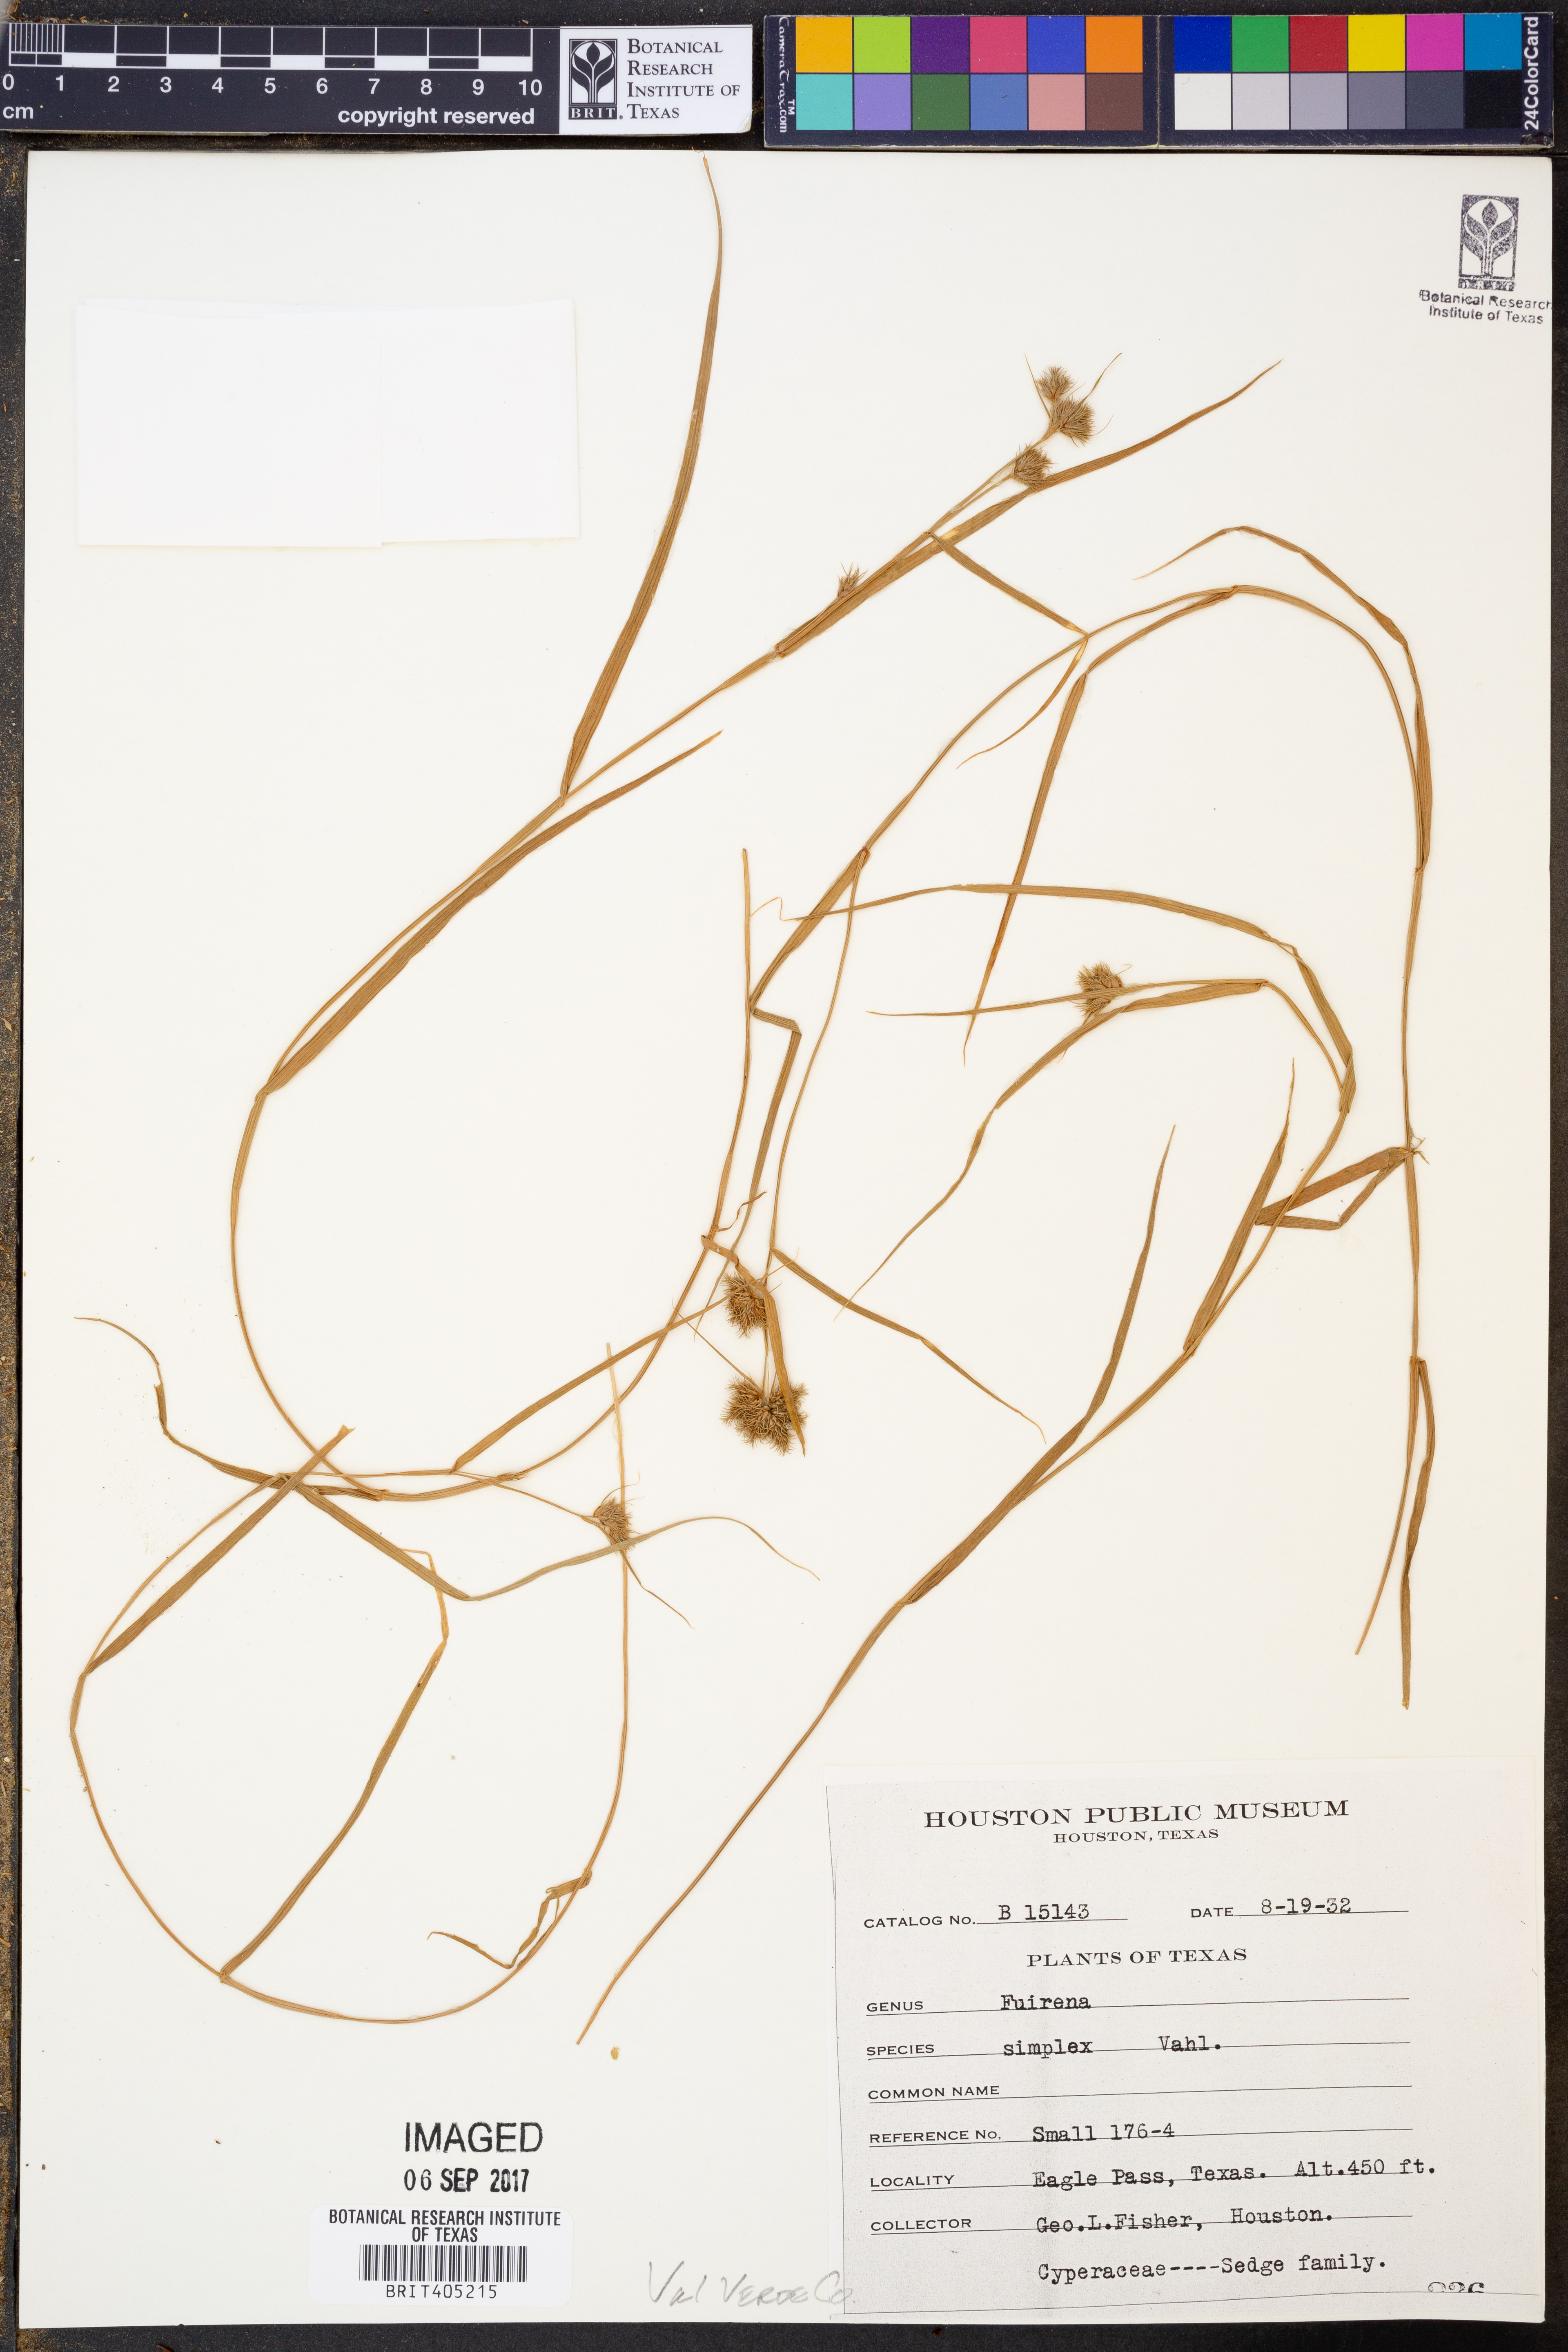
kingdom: Plantae
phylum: Tracheophyta
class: Liliopsida
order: Poales
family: Cyperaceae
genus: Fuirena
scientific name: Fuirena simplex
